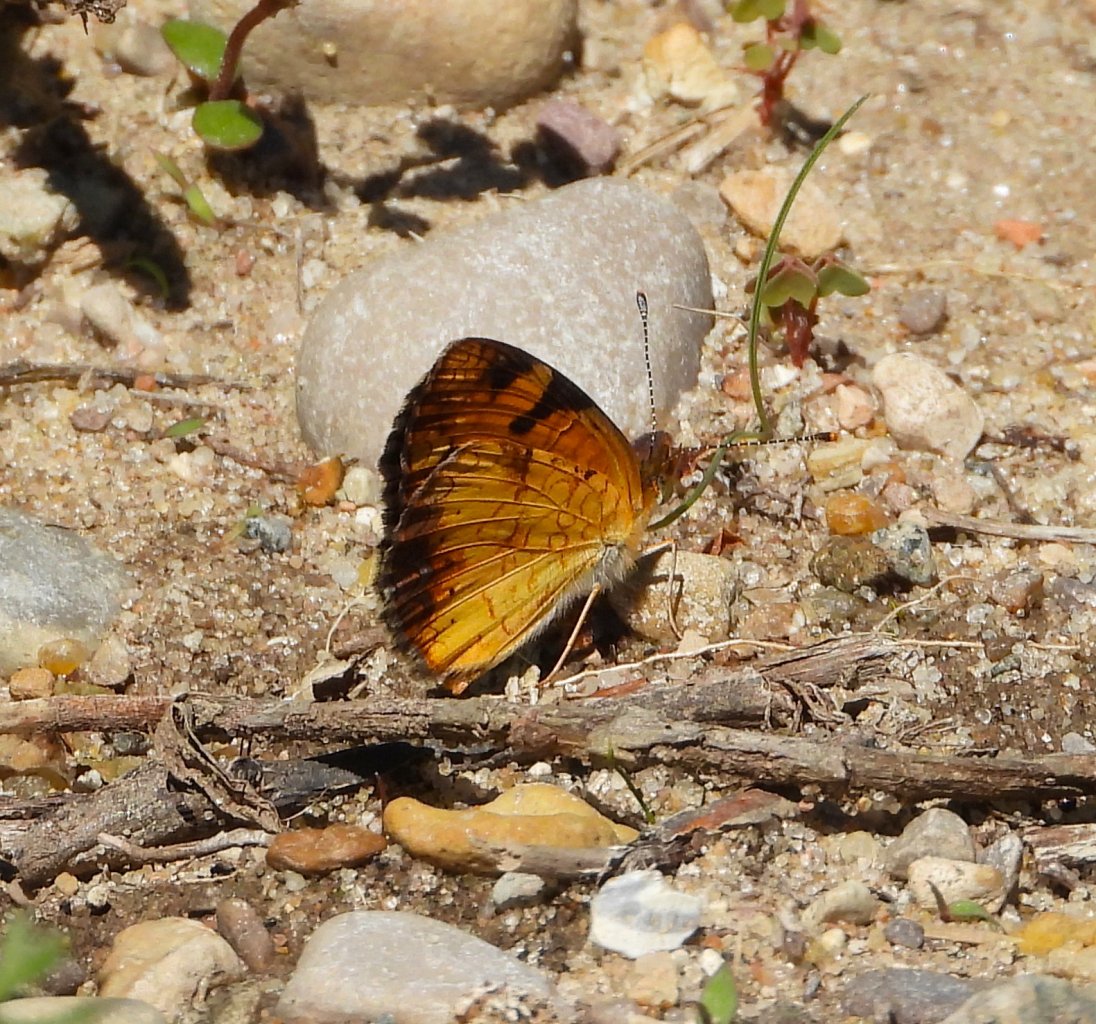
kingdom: Animalia
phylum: Arthropoda
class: Insecta
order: Lepidoptera
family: Nymphalidae
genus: Phyciodes
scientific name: Phyciodes tharos
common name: Northern Crescent
